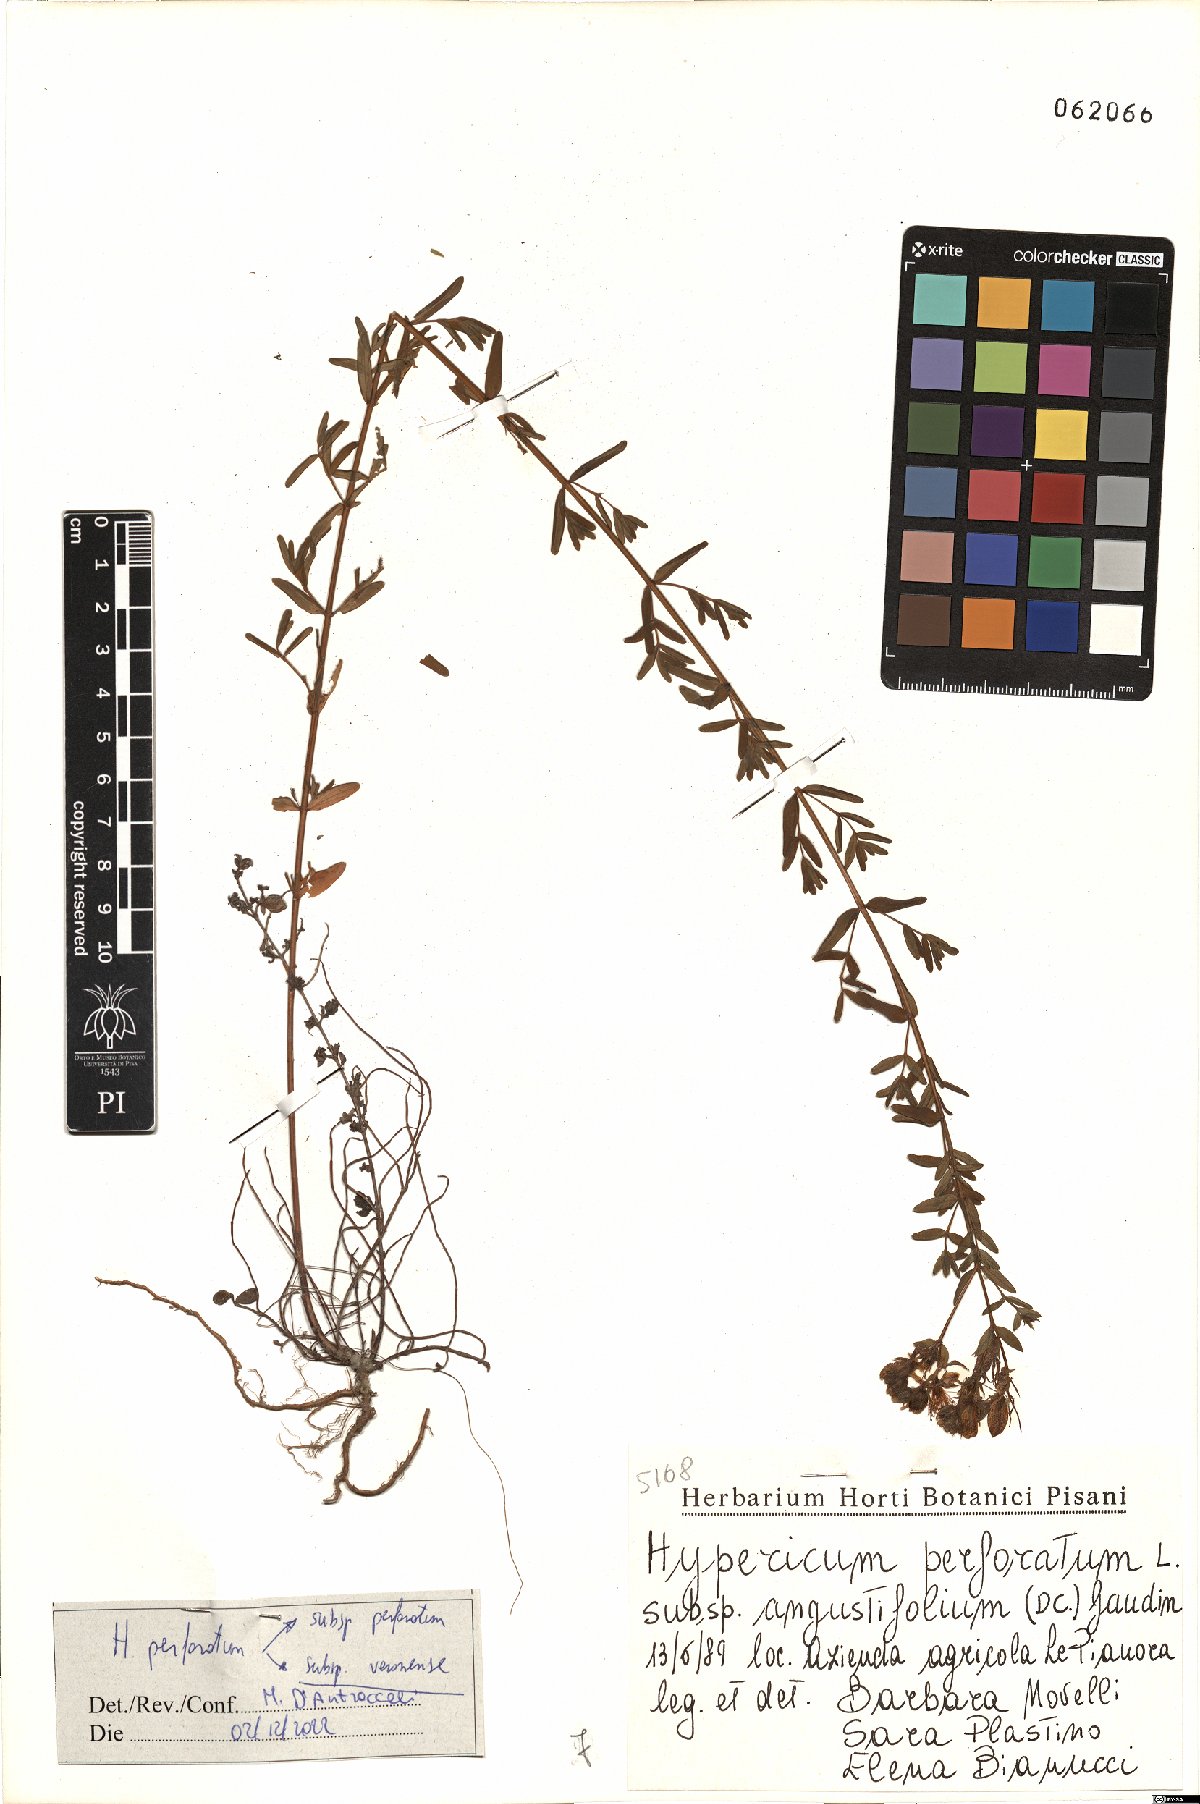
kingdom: Plantae
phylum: Tracheophyta
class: Magnoliopsida
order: Malpighiales
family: Hypericaceae
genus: Hypericum
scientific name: Hypericum veronense
